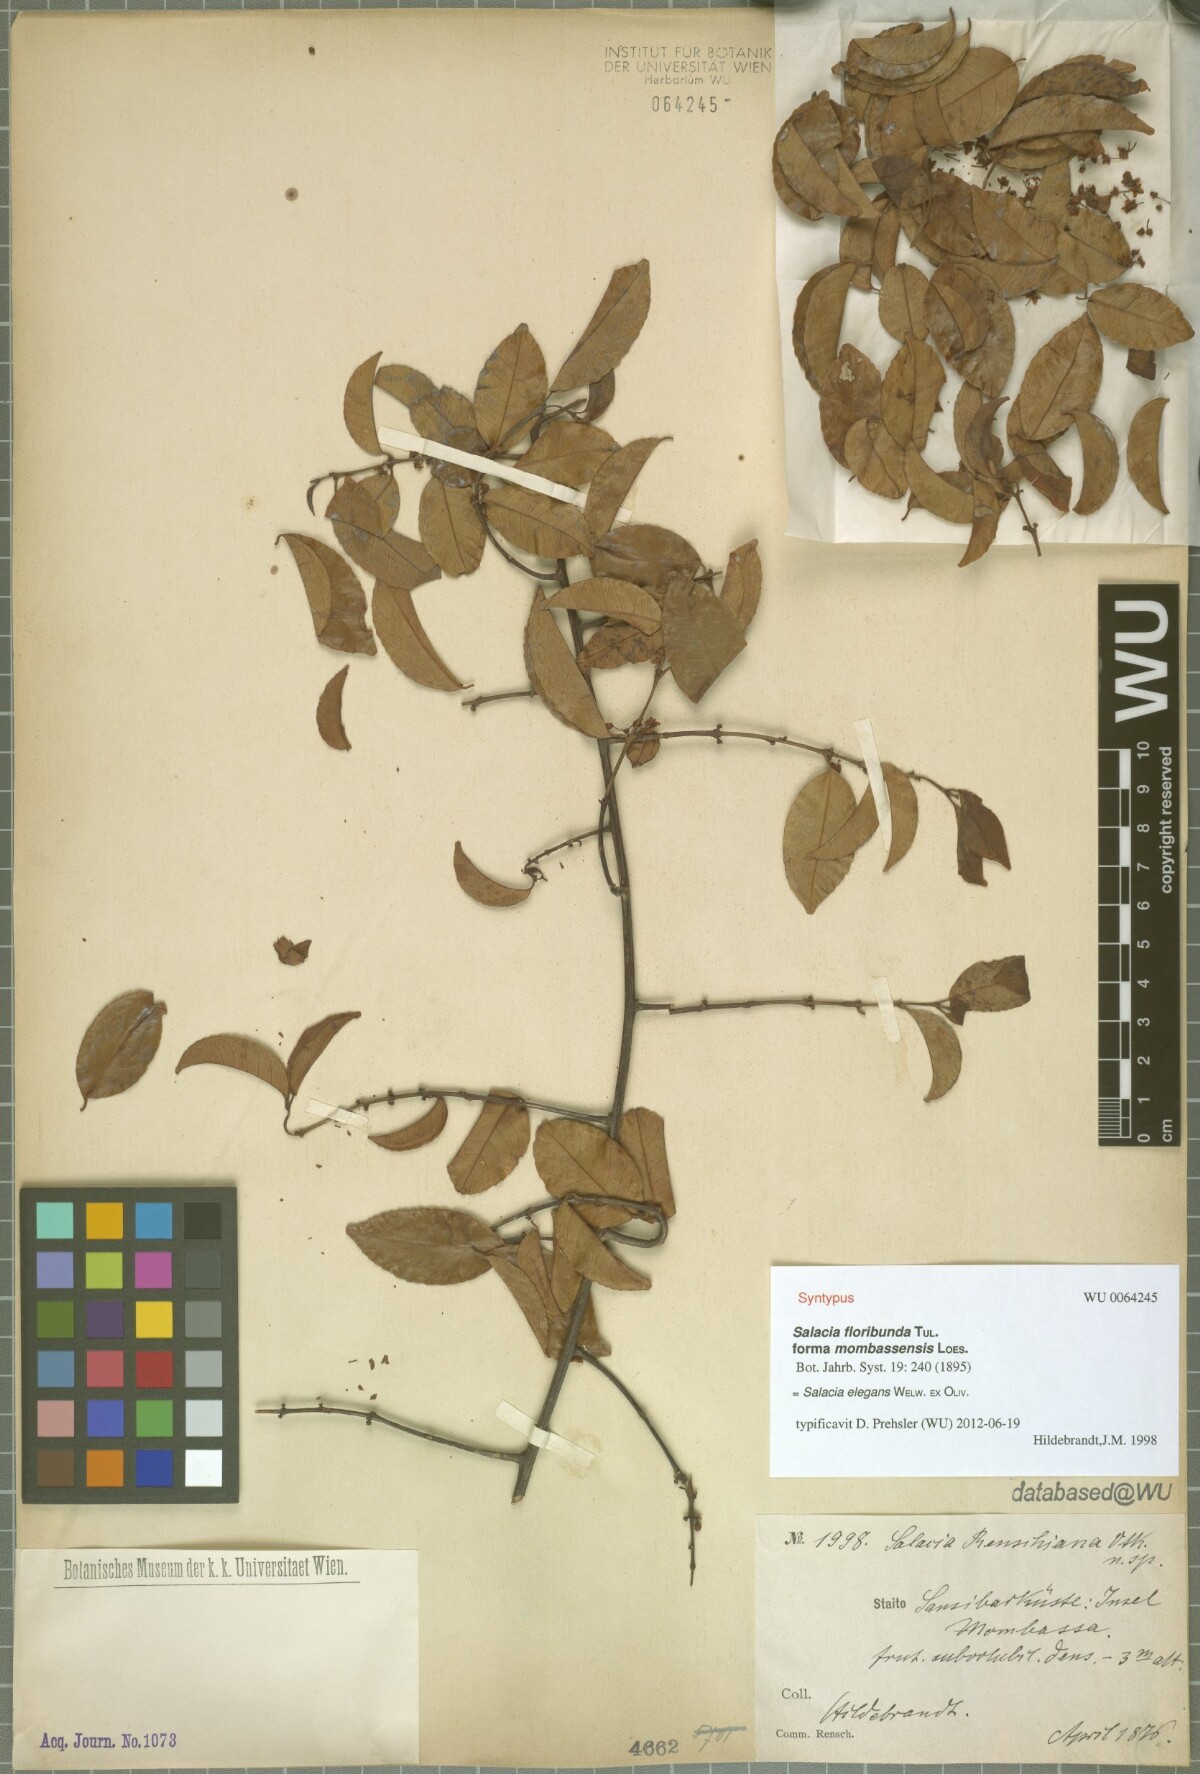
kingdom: Plantae
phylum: Tracheophyta
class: Magnoliopsida
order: Celastrales
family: Celastraceae
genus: Salacia
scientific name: Salacia elegans
